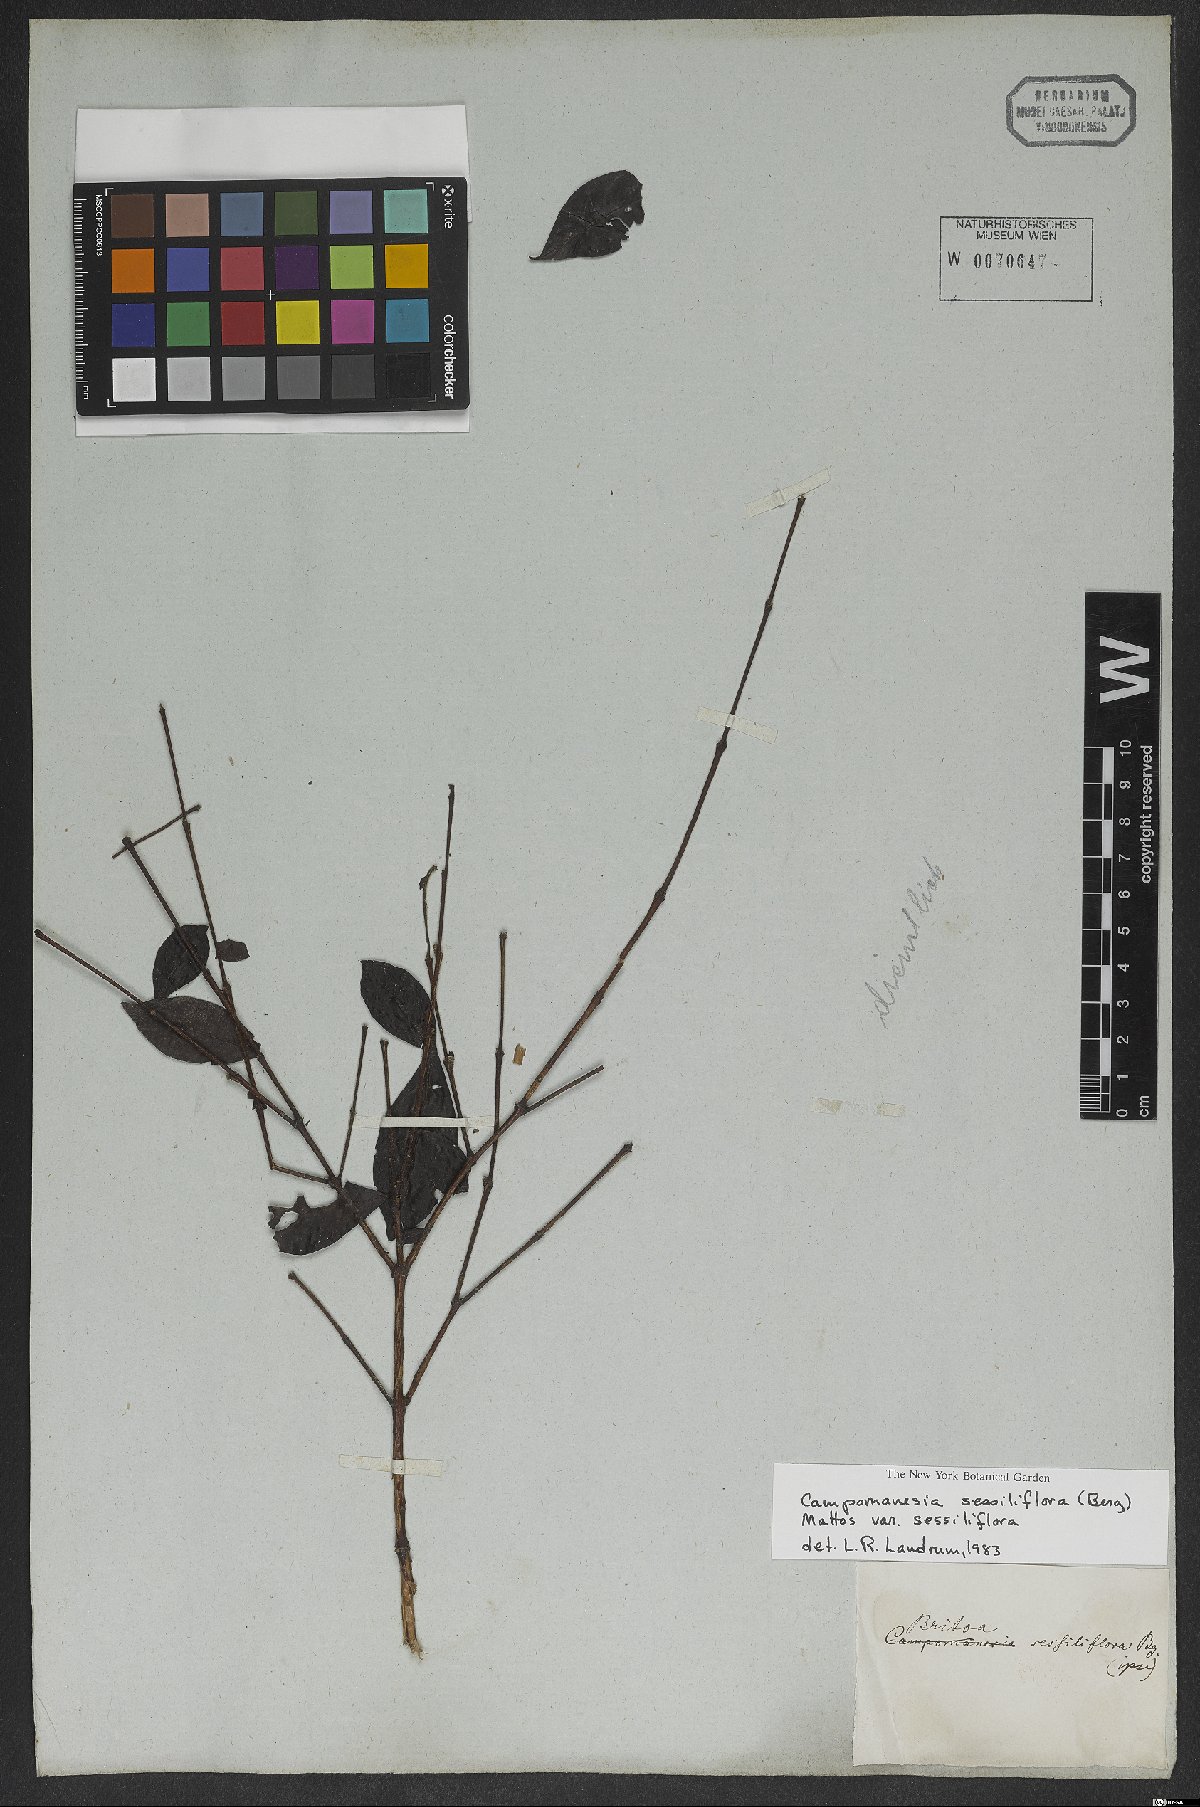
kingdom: Plantae
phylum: Tracheophyta
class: Magnoliopsida
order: Myrtales
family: Myrtaceae
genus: Campomanesia
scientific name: Campomanesia sessiliflora
